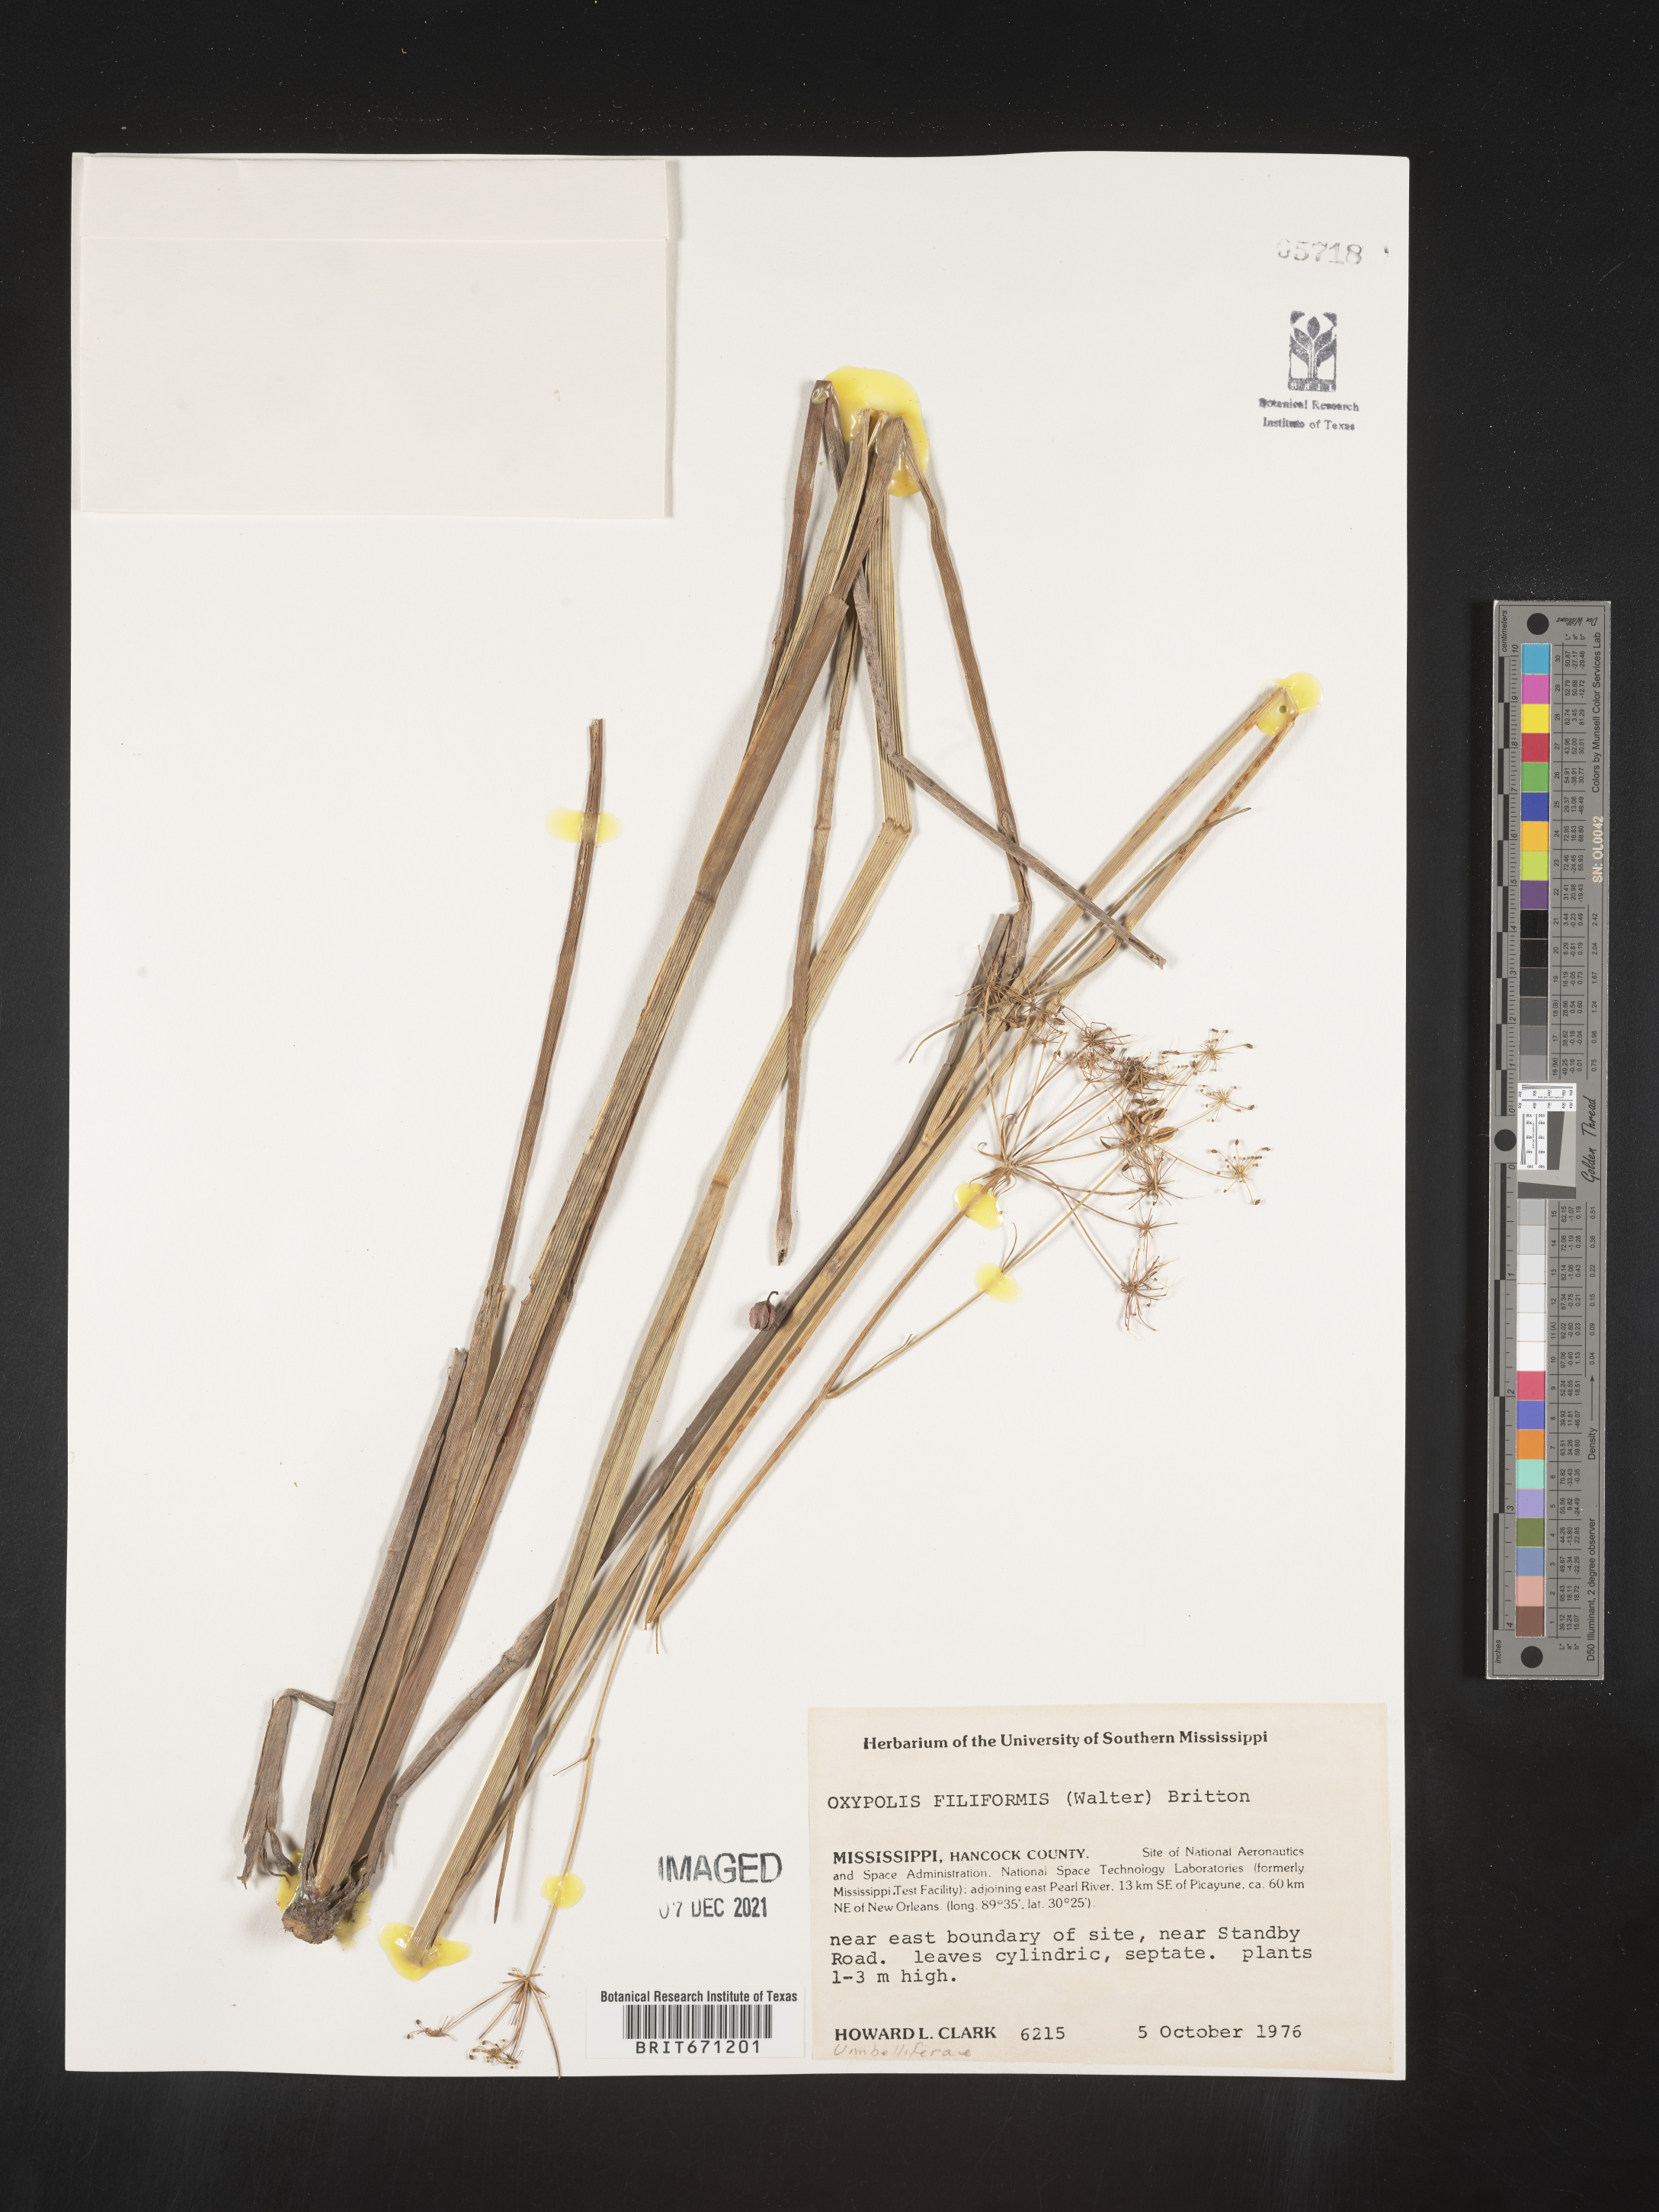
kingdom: Plantae
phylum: Tracheophyta
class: Magnoliopsida
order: Apiales
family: Apiaceae
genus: Tiedemannia
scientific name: Tiedemannia filiformis
